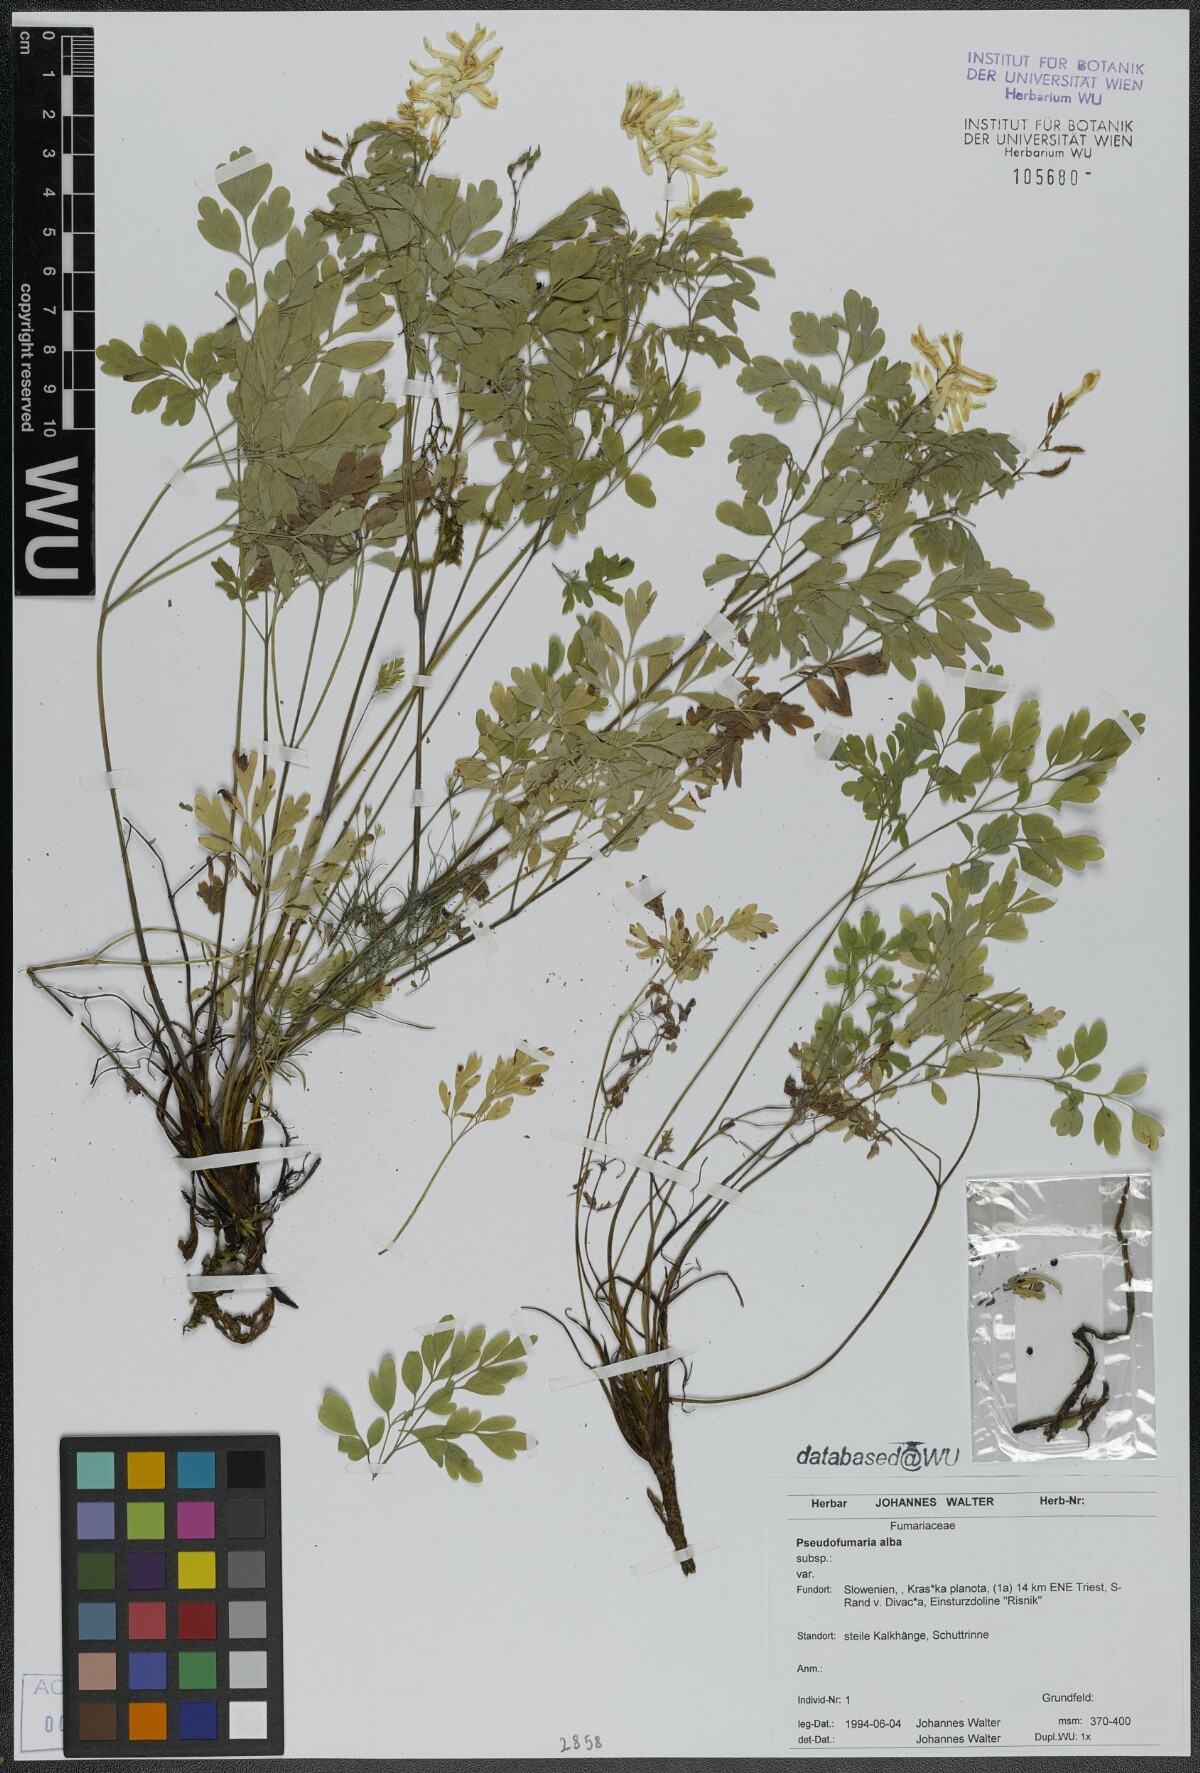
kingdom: Plantae
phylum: Tracheophyta
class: Magnoliopsida
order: Ranunculales
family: Papaveraceae
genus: Pseudofumaria
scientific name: Pseudofumaria alba
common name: Pale corydalis
